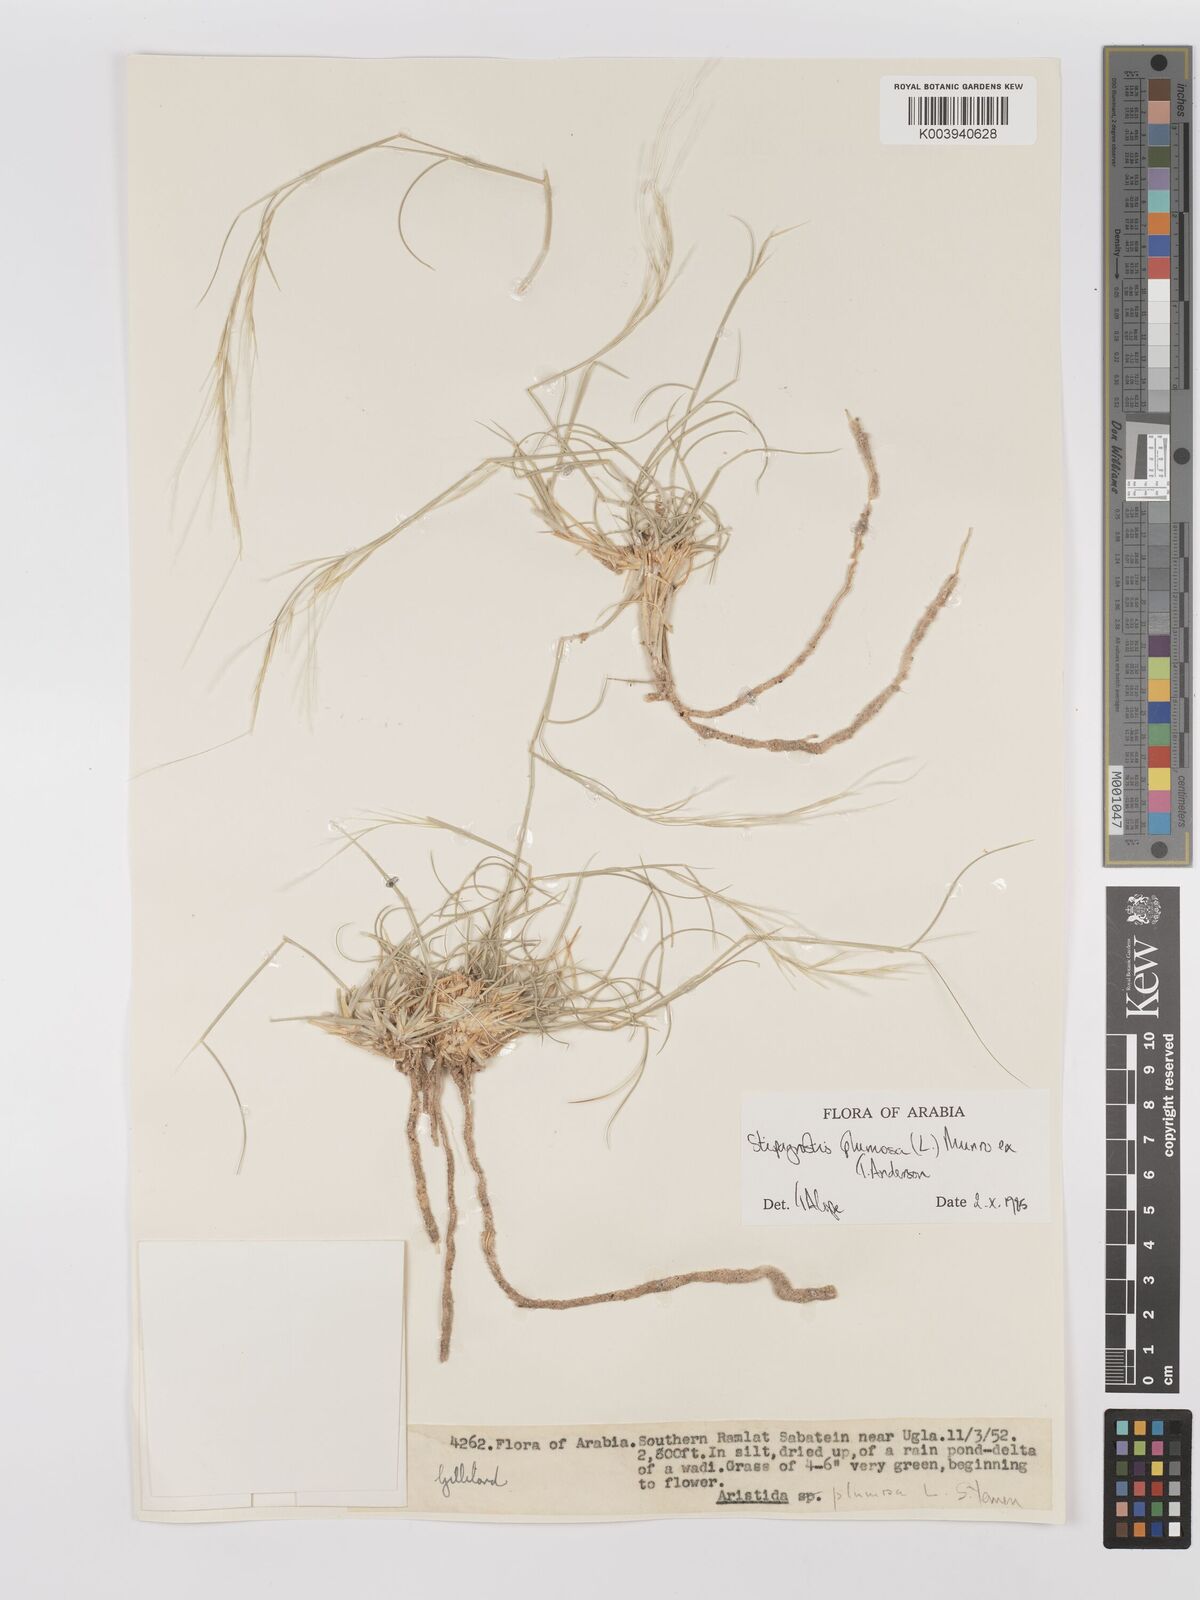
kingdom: Plantae
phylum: Tracheophyta
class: Liliopsida
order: Poales
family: Poaceae
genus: Stipagrostis
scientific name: Stipagrostis plumosa
